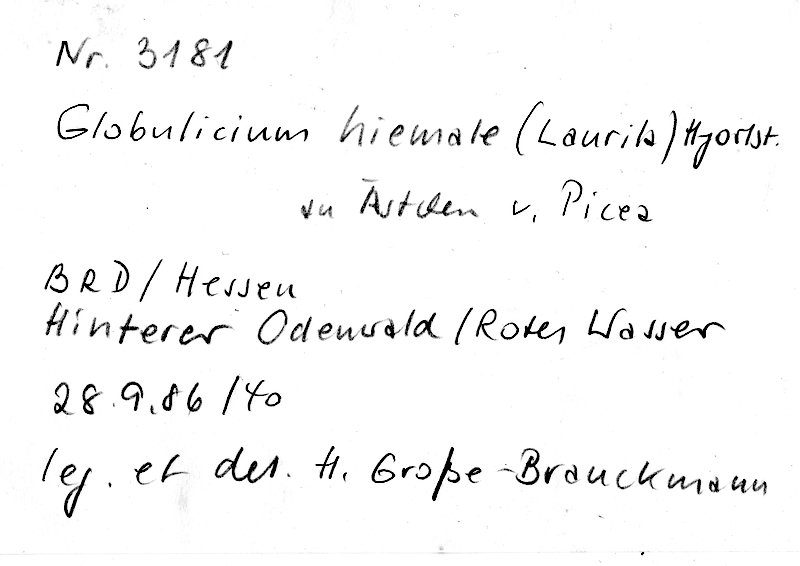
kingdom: Plantae
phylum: Tracheophyta
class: Pinopsida
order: Pinales
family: Pinaceae
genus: Picea
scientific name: Picea
